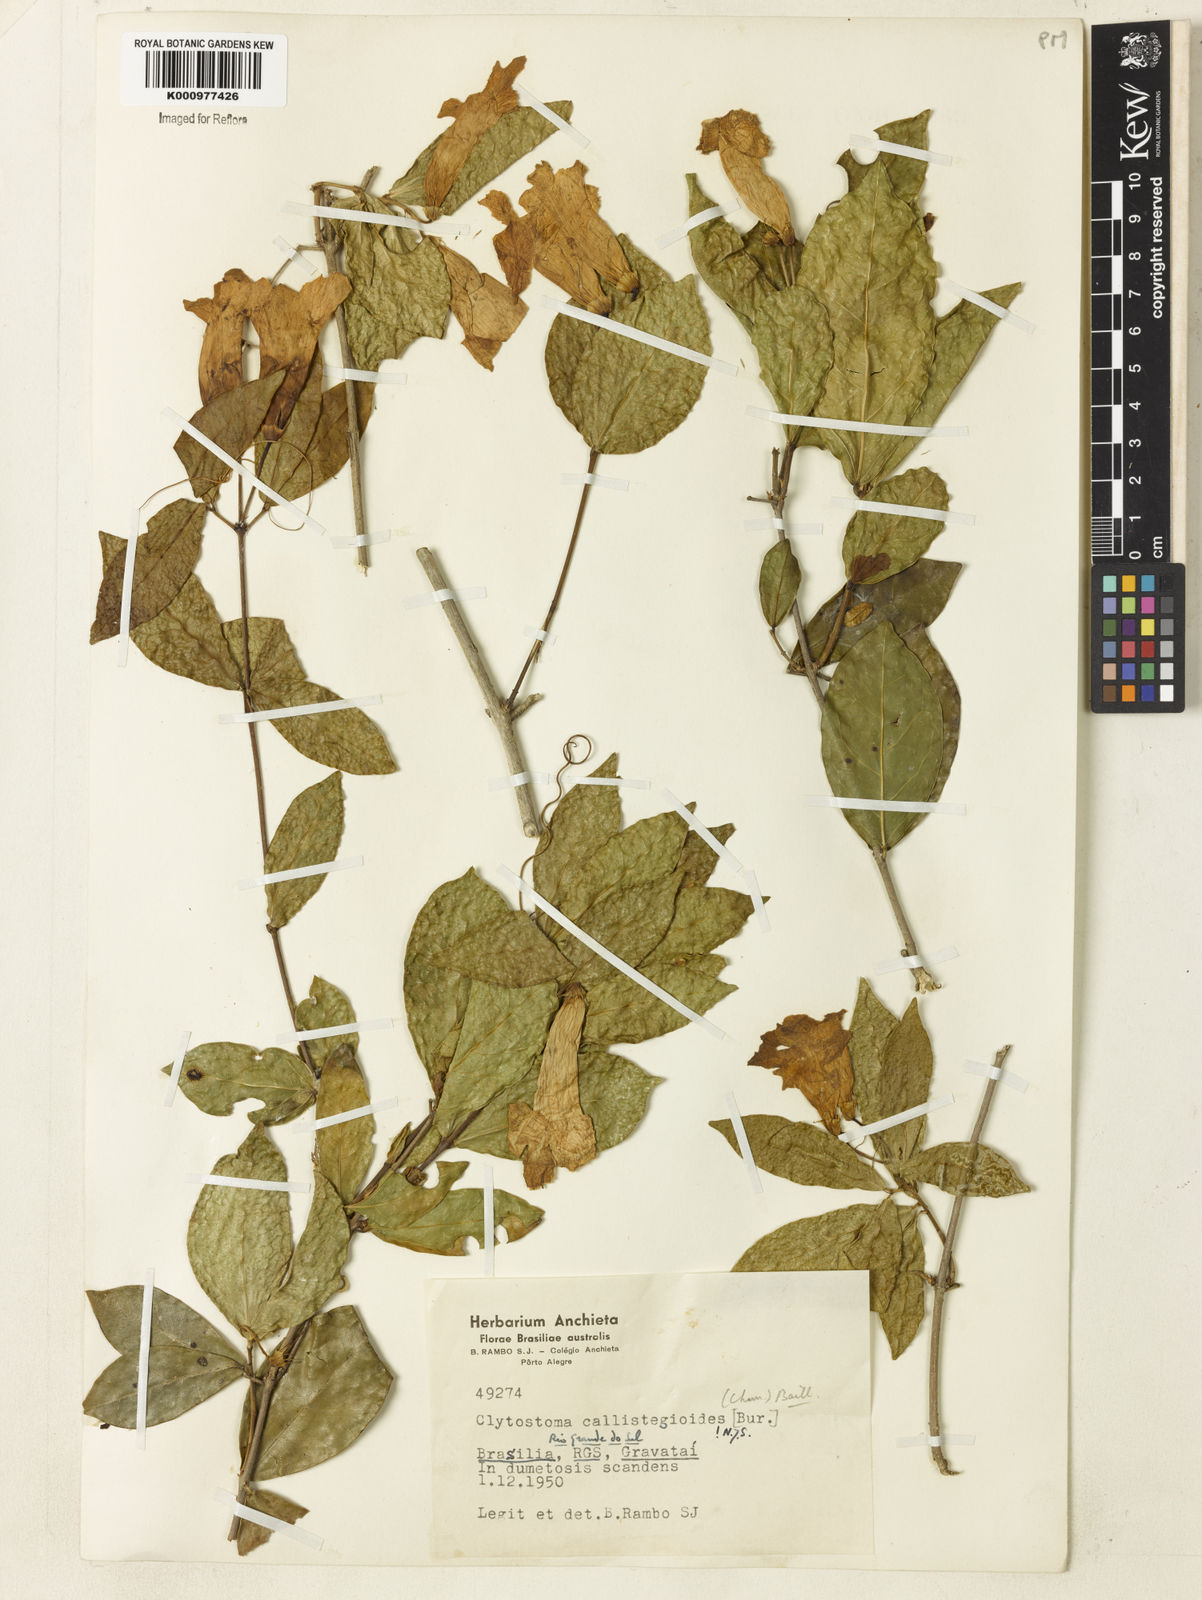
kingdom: Plantae
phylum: Tracheophyta
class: Magnoliopsida
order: Lamiales
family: Bignoniaceae
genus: Bignonia
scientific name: Bignonia
